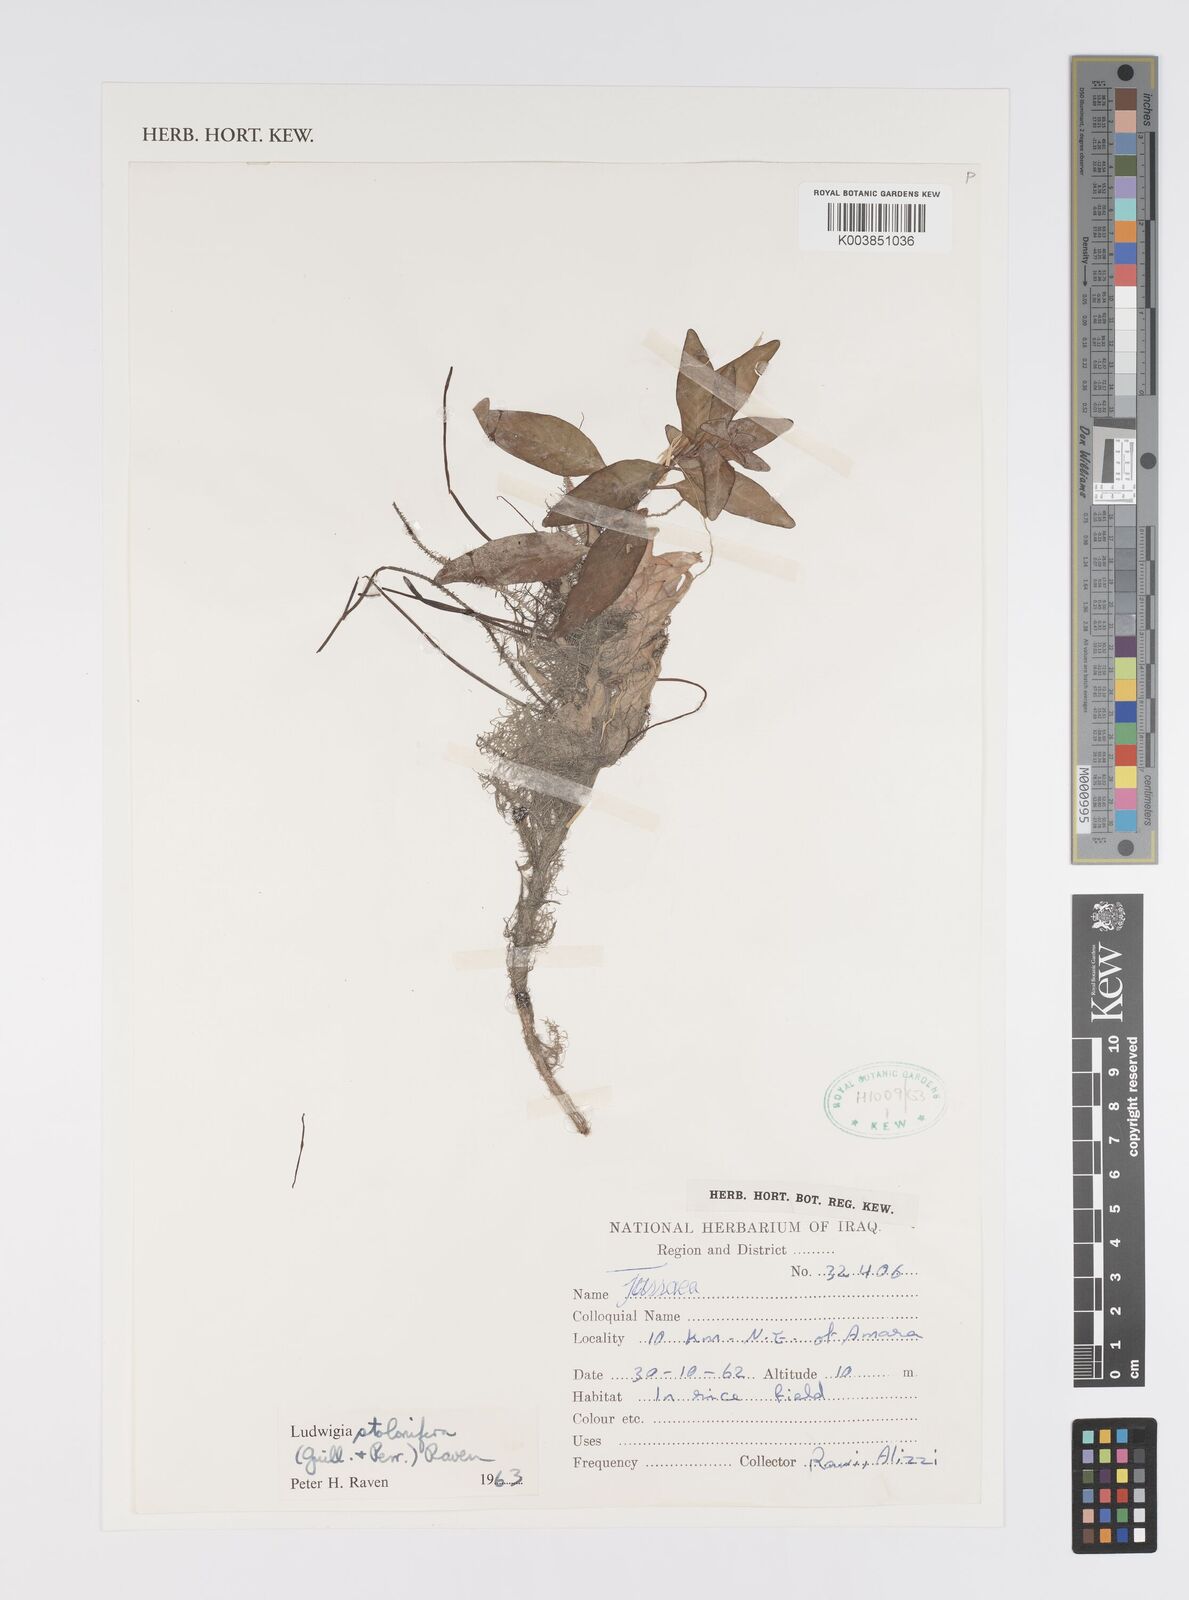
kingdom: Plantae
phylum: Tracheophyta
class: Magnoliopsida
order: Myrtales
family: Onagraceae
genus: Ludwigia
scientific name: Ludwigia adscendens
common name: Creeping water primrose
